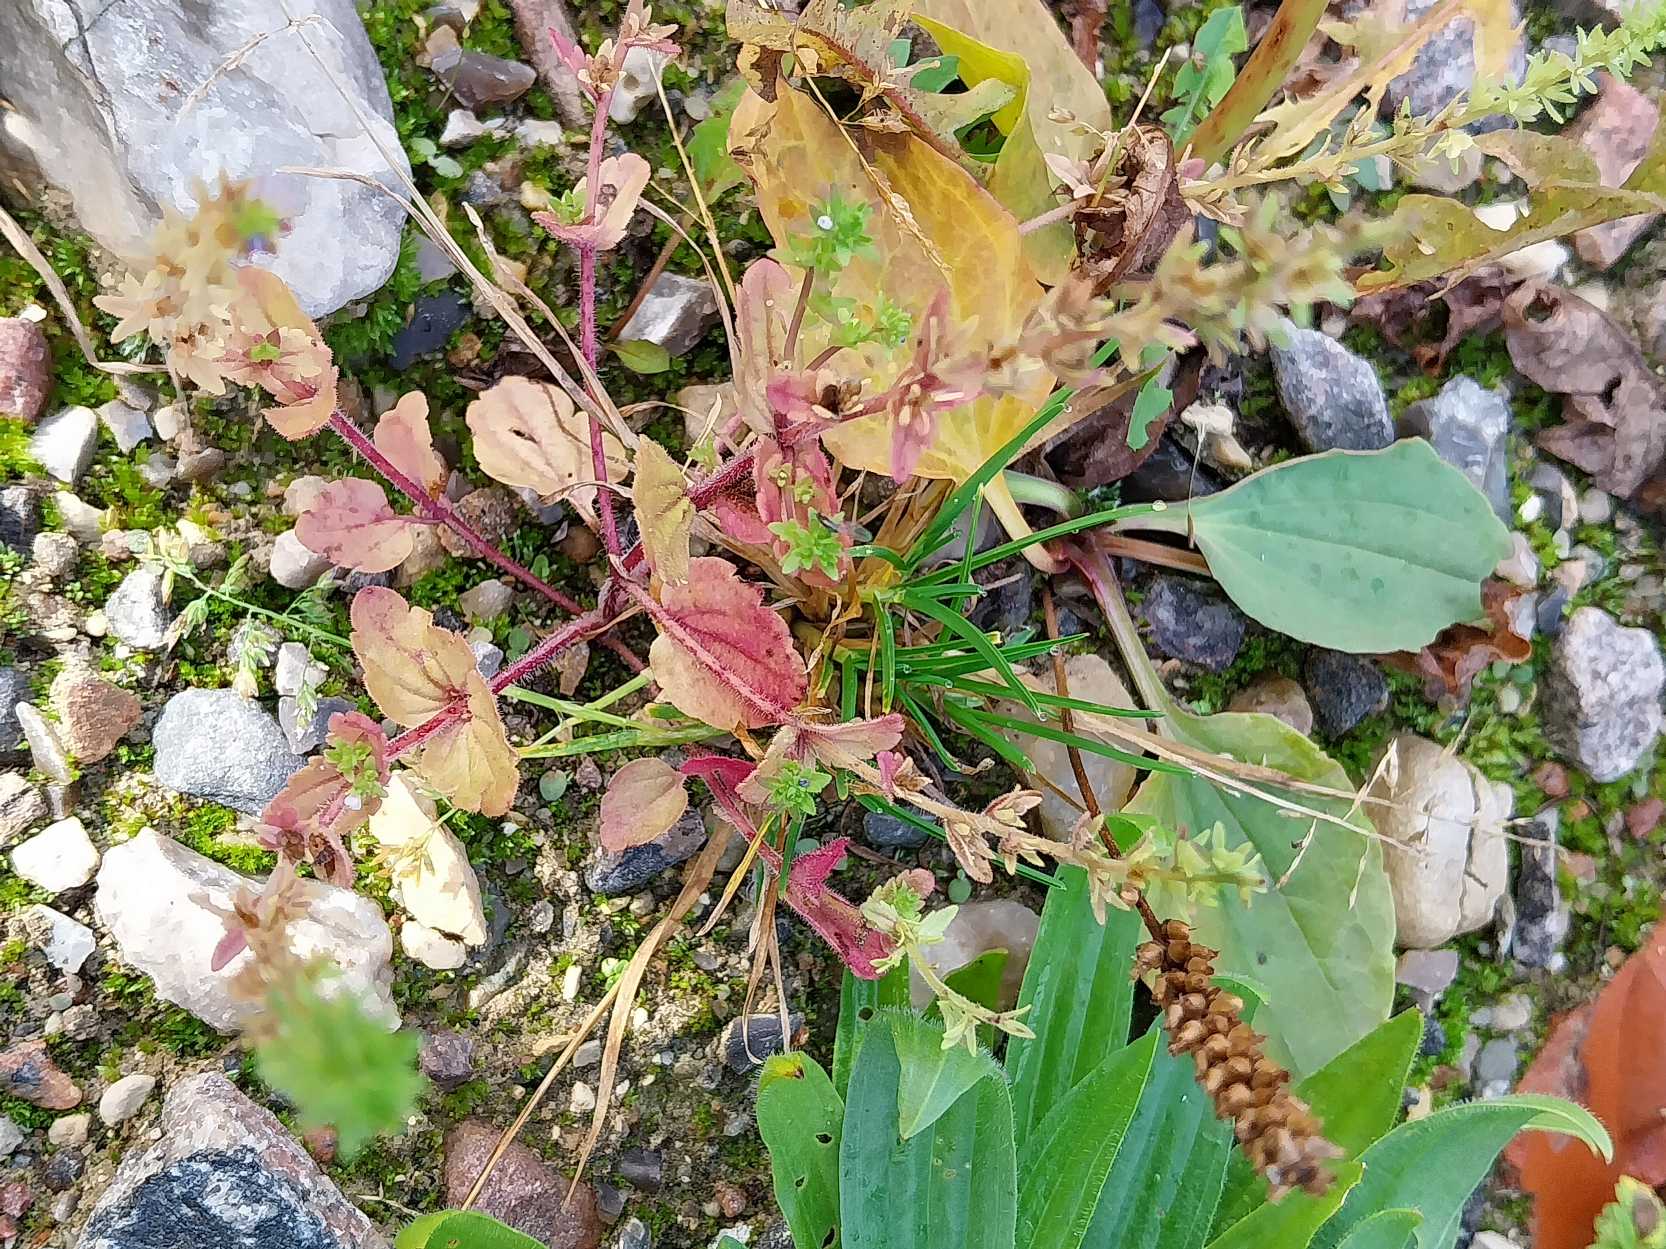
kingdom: Plantae
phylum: Tracheophyta
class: Magnoliopsida
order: Lamiales
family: Plantaginaceae
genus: Veronica
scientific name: Veronica arvensis
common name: Mark-ærenpris
